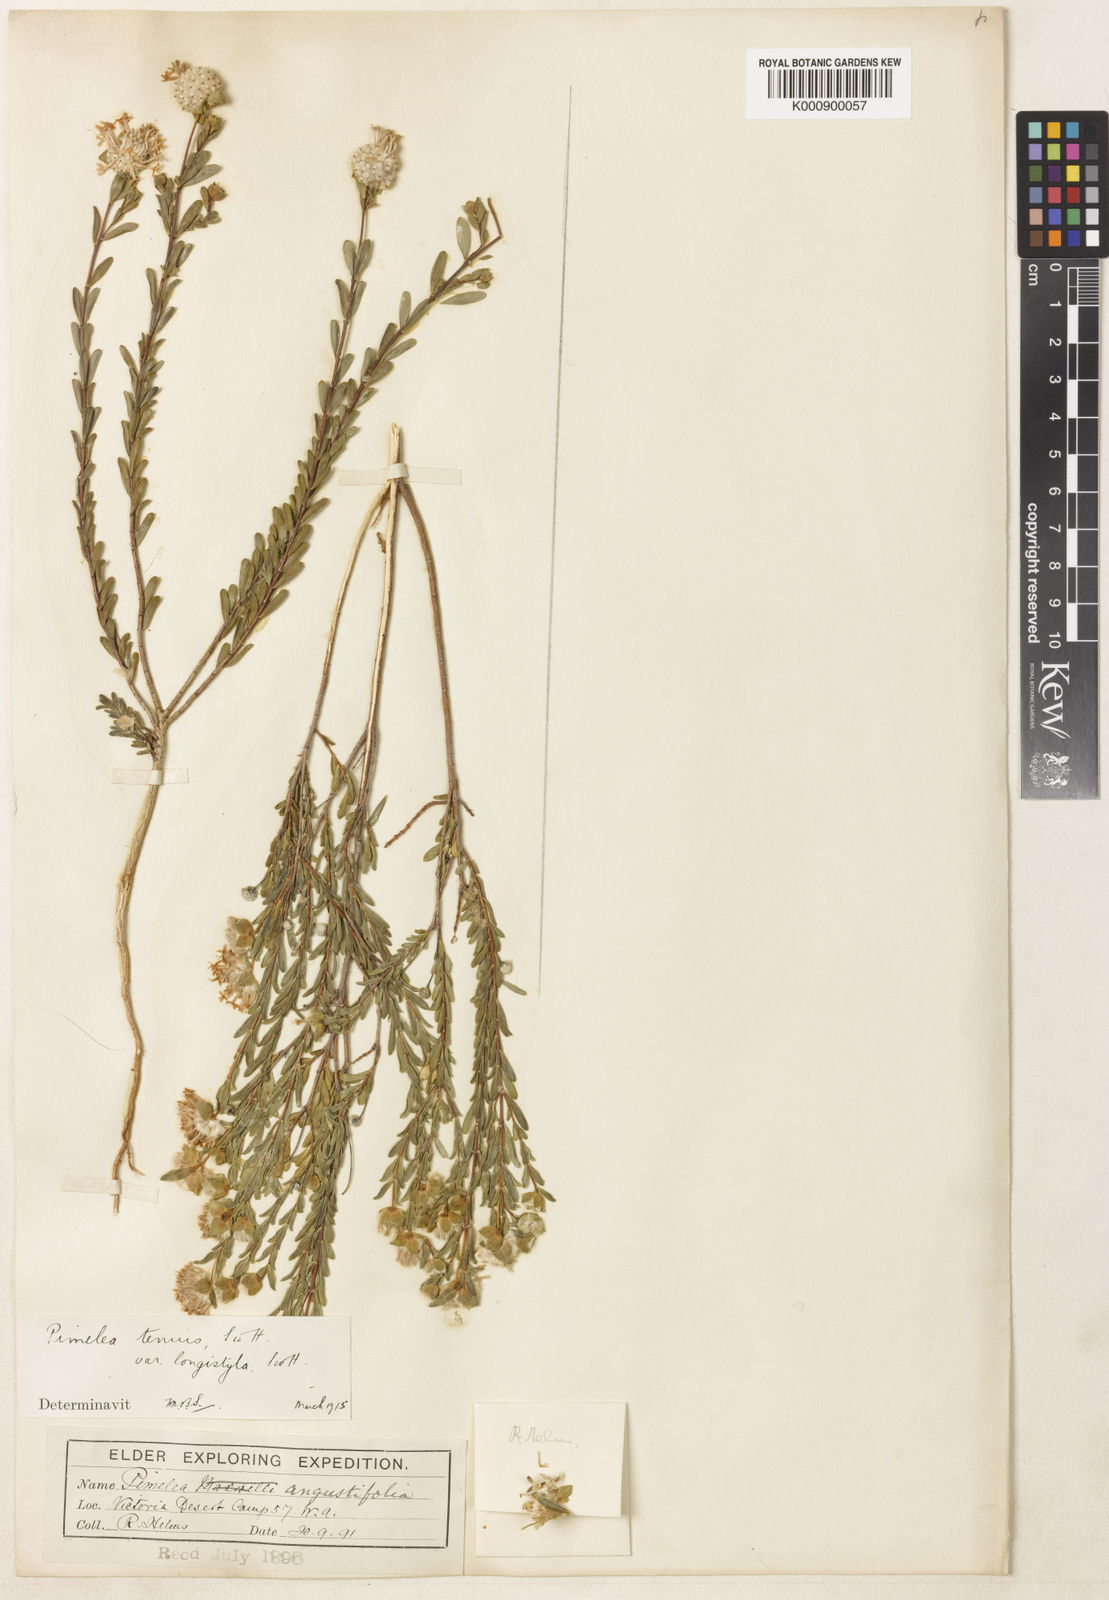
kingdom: Plantae
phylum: Tracheophyta
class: Magnoliopsida
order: Malvales
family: Thymelaeaceae
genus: Pimelea
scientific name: Pimelea
